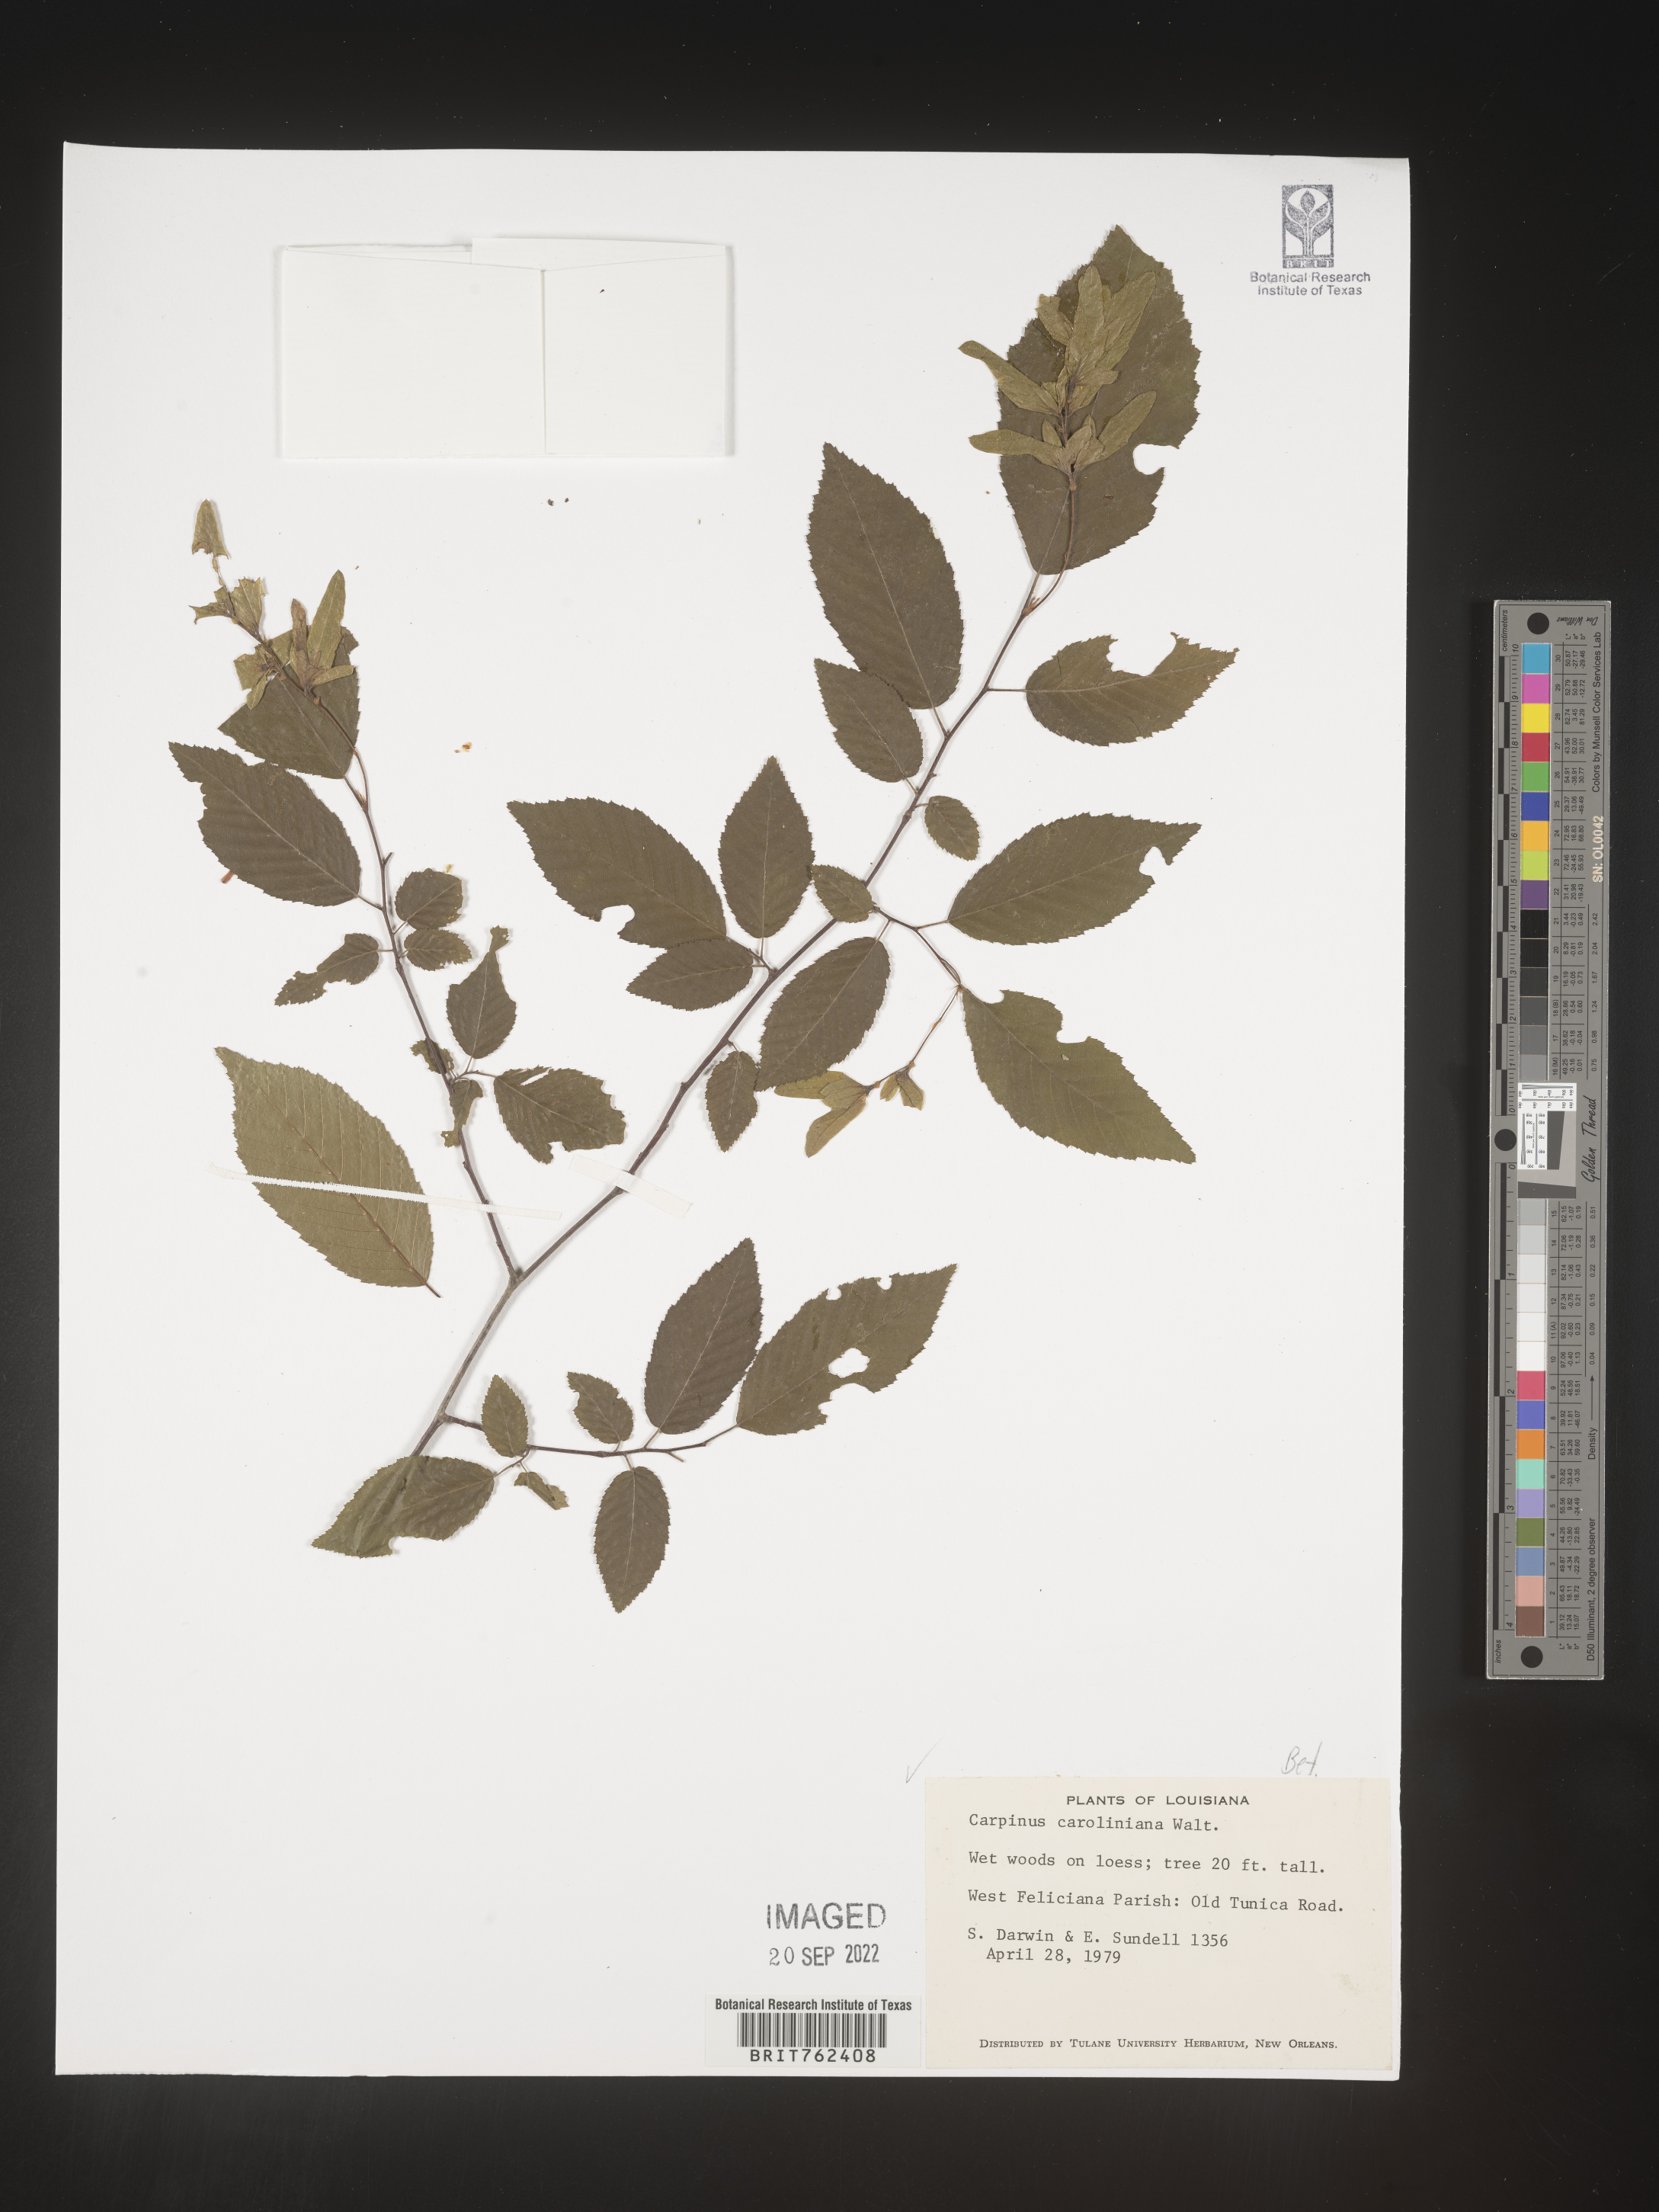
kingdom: Plantae
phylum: Tracheophyta
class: Magnoliopsida
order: Fagales
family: Betulaceae
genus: Carpinus
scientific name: Carpinus caroliniana
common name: American hornbeam
